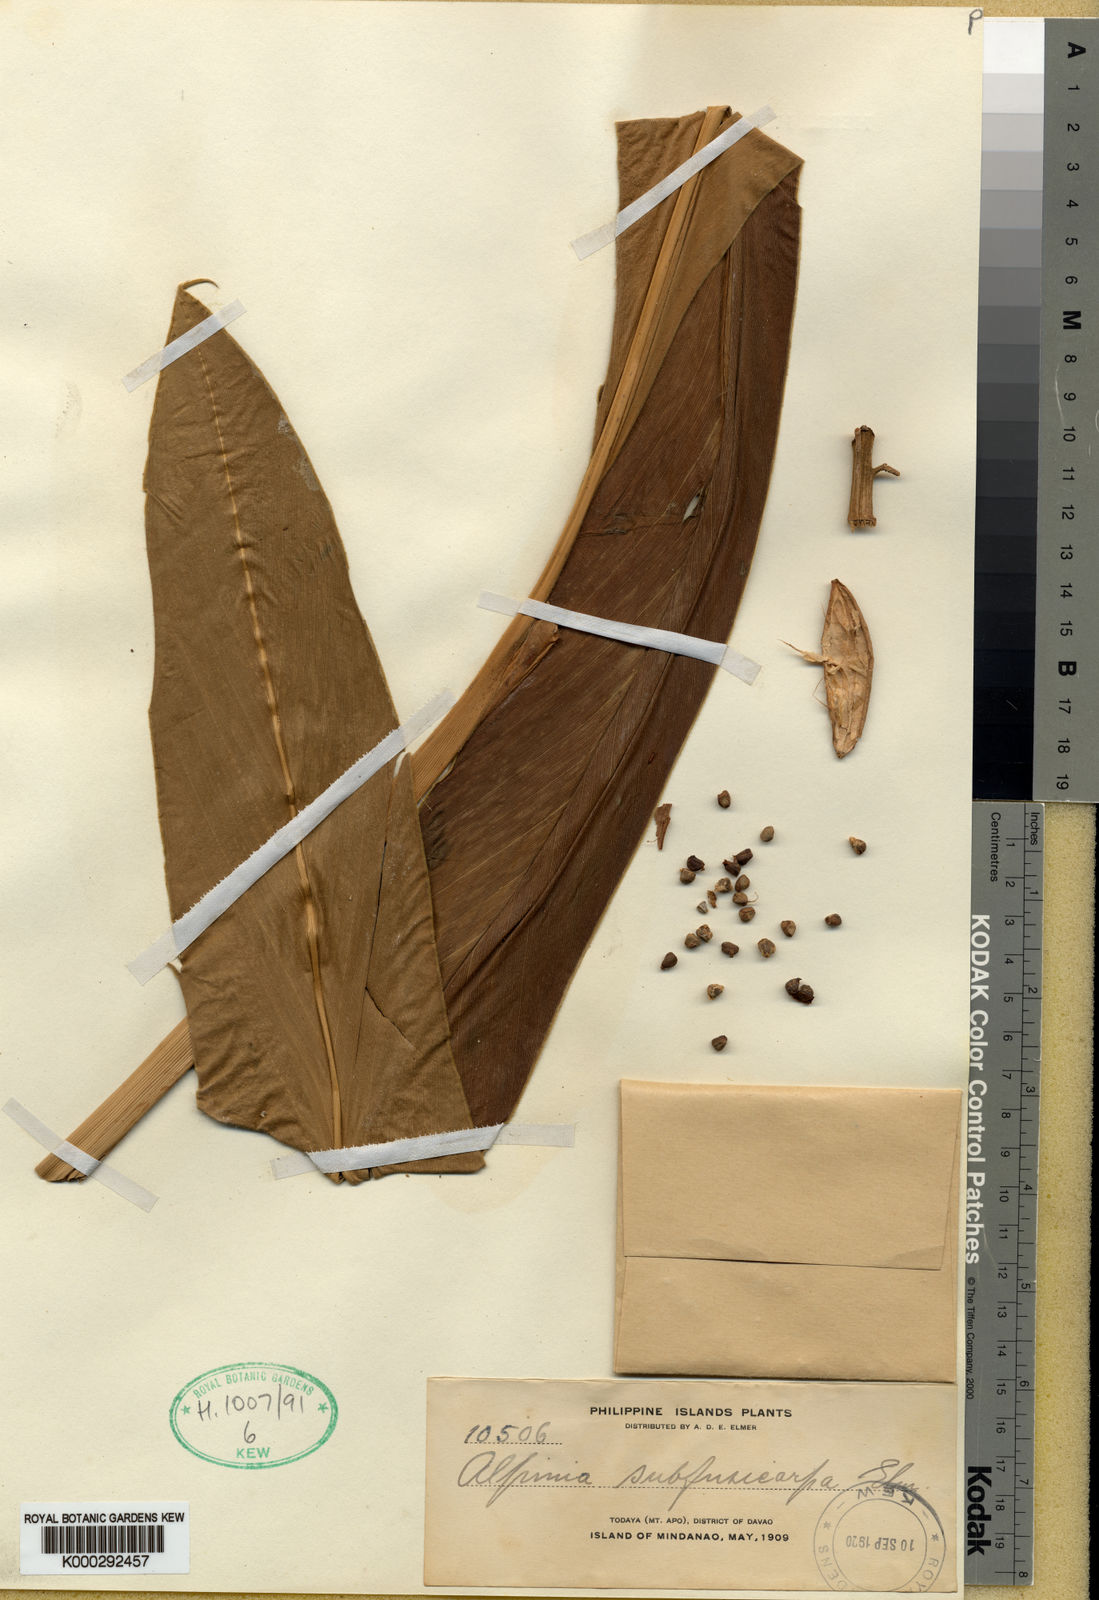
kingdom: Plantae
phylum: Tracheophyta
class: Liliopsida
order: Zingiberales
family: Zingiberaceae
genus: Alpinia
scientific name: Alpinia subfusicarpa
